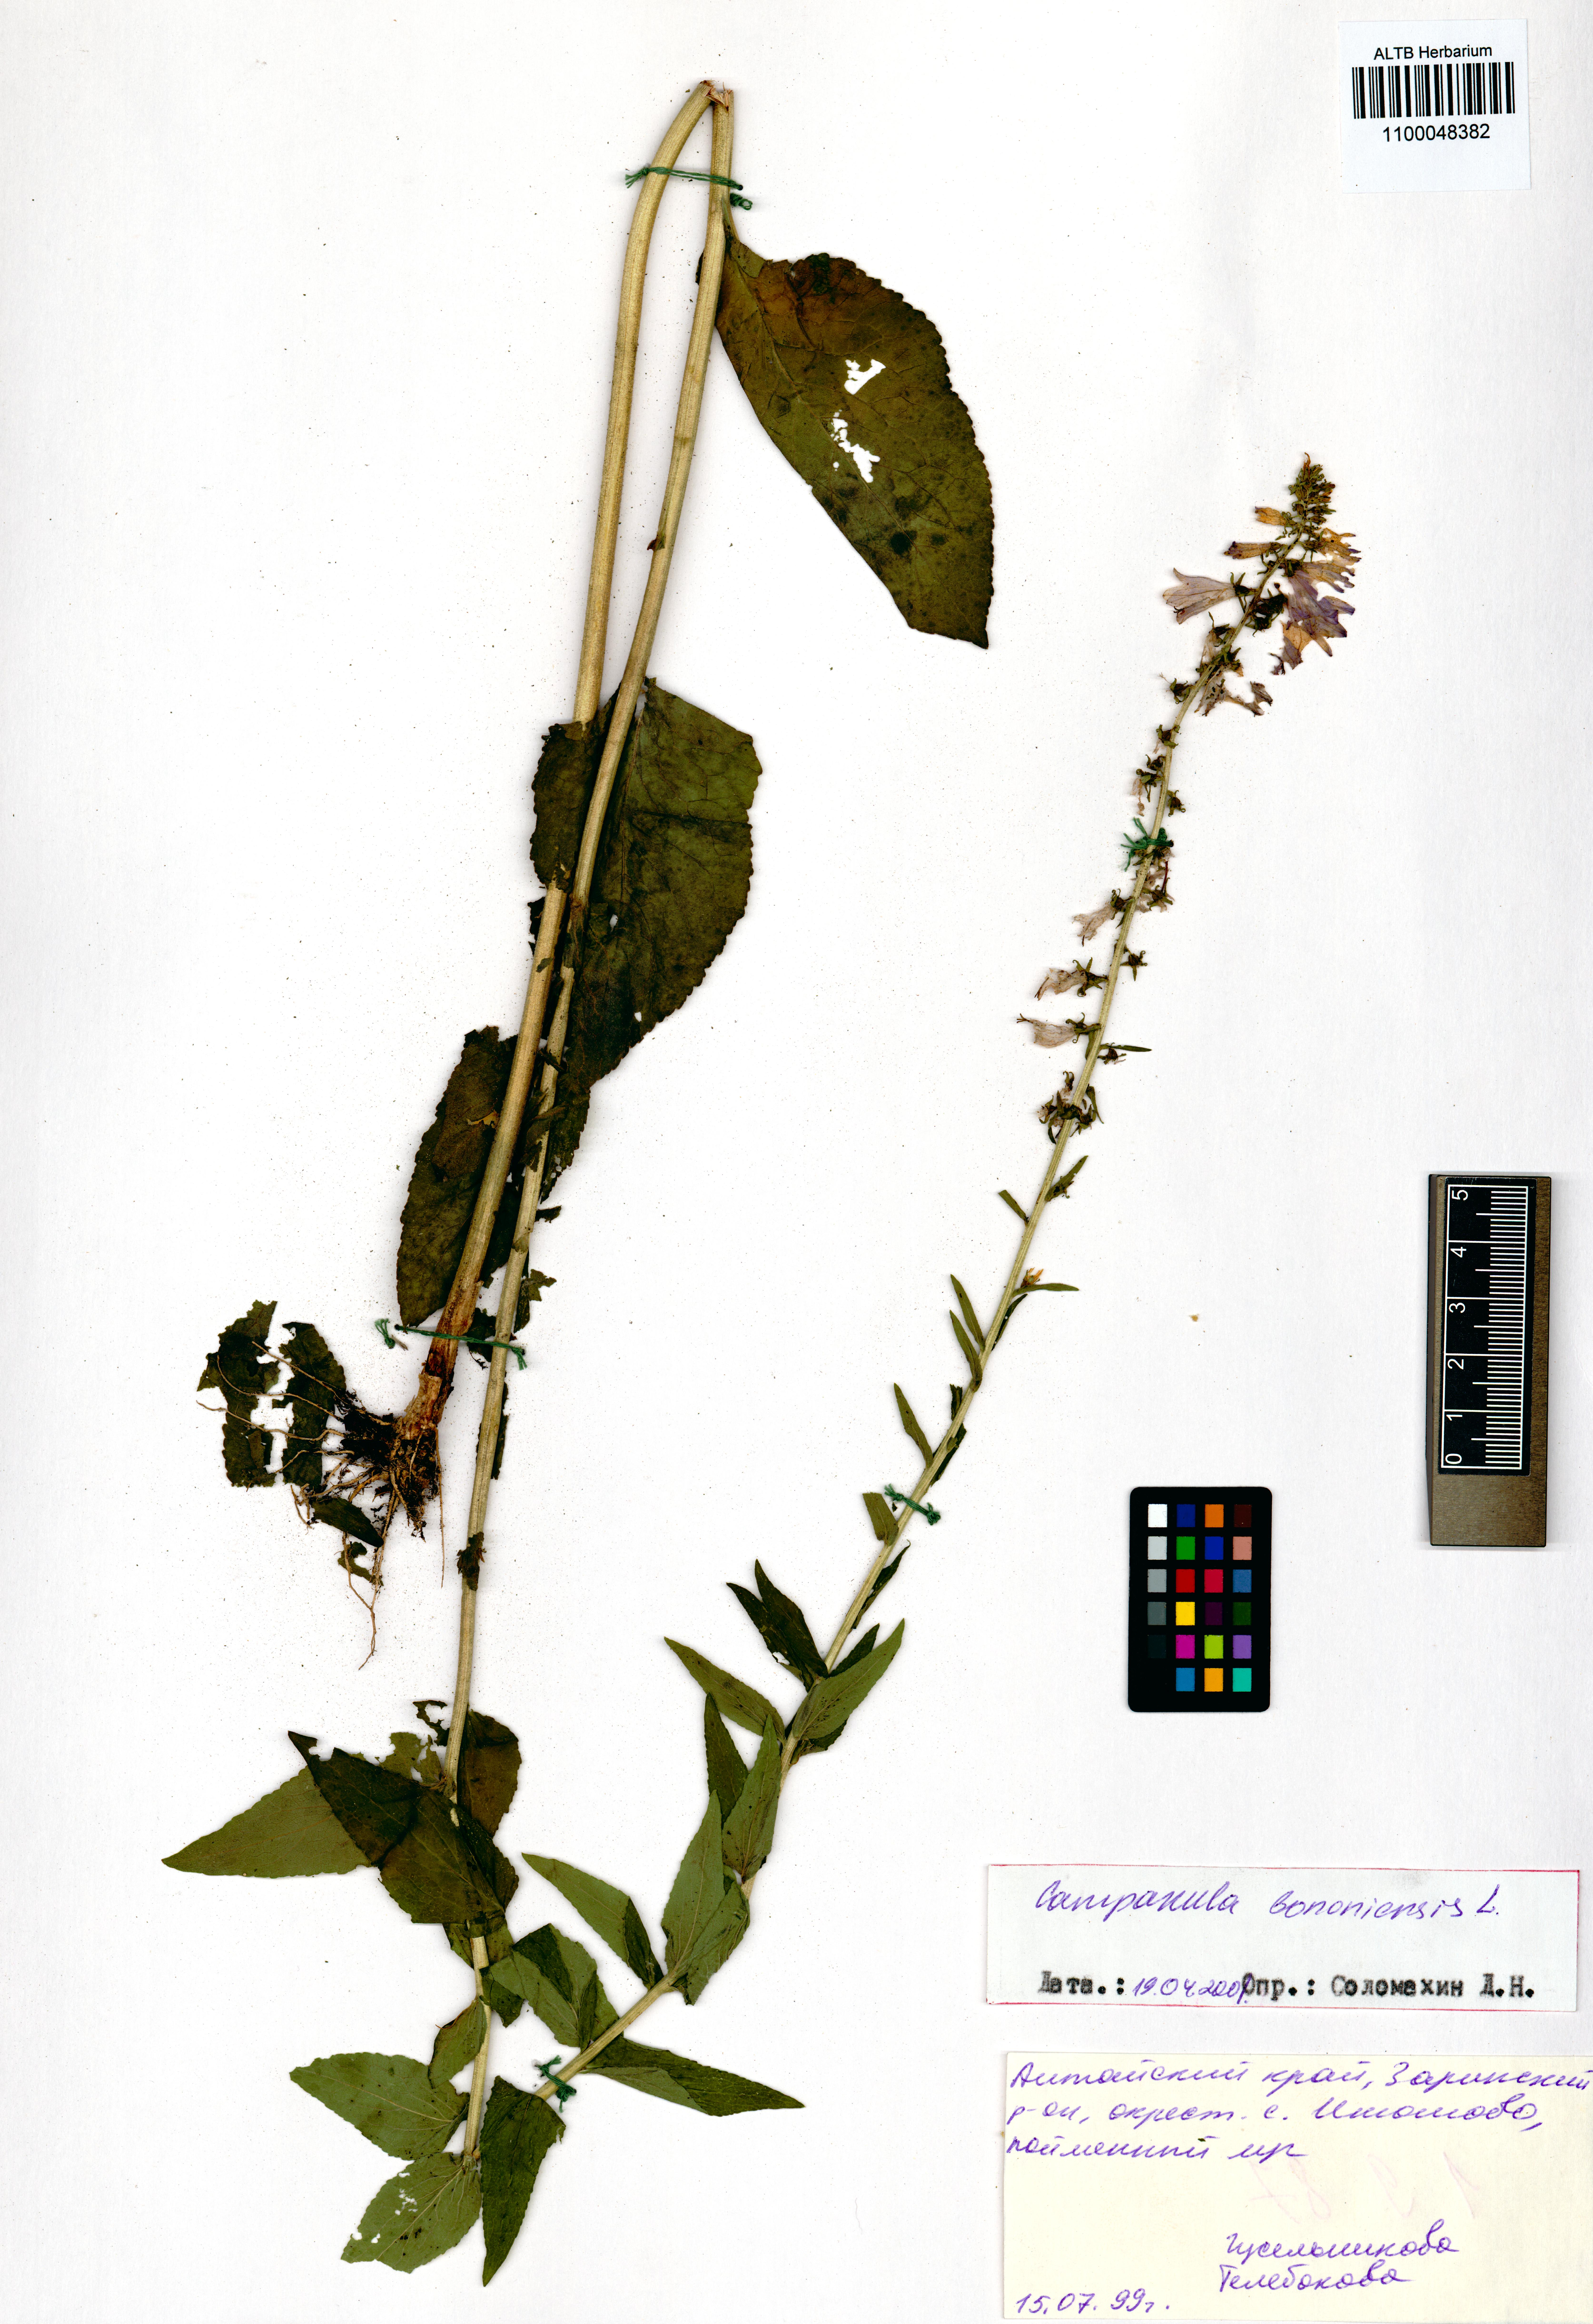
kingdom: Plantae
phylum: Tracheophyta
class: Magnoliopsida
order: Asterales
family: Campanulaceae
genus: Campanula
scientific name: Campanula bononiensis
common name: Pale bellflower
